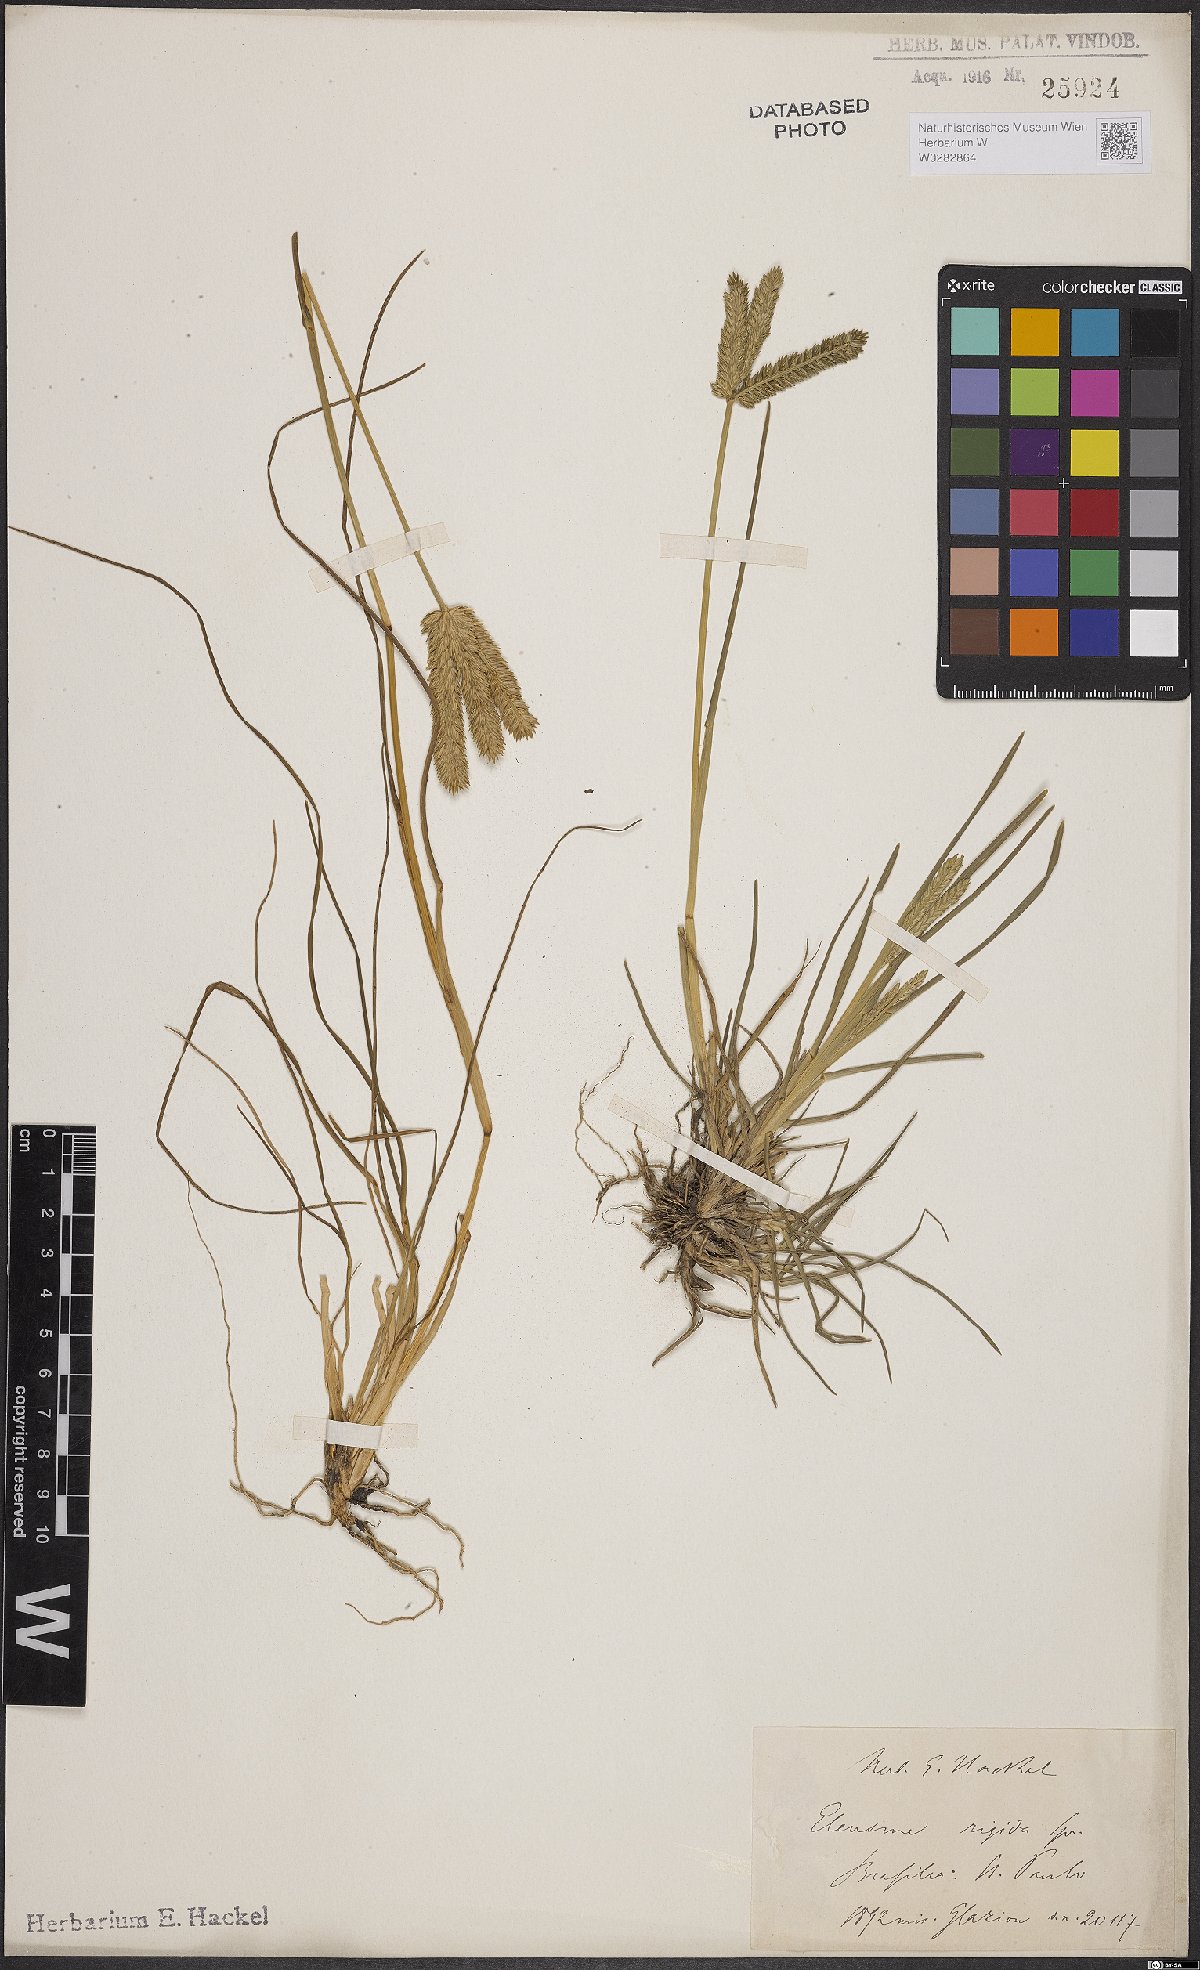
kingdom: Plantae
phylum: Tracheophyta
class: Liliopsida
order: Poales
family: Poaceae
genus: Eleusine
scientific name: Eleusine tristachya
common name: American yard-grass
